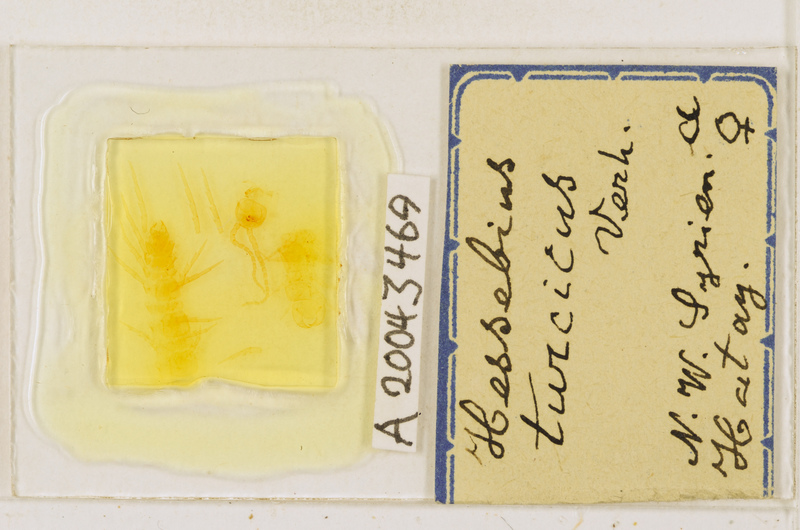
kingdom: Animalia
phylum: Arthropoda
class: Chilopoda
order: Lithobiomorpha
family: Lithobiidae
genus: Hessebius
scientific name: Hessebius
